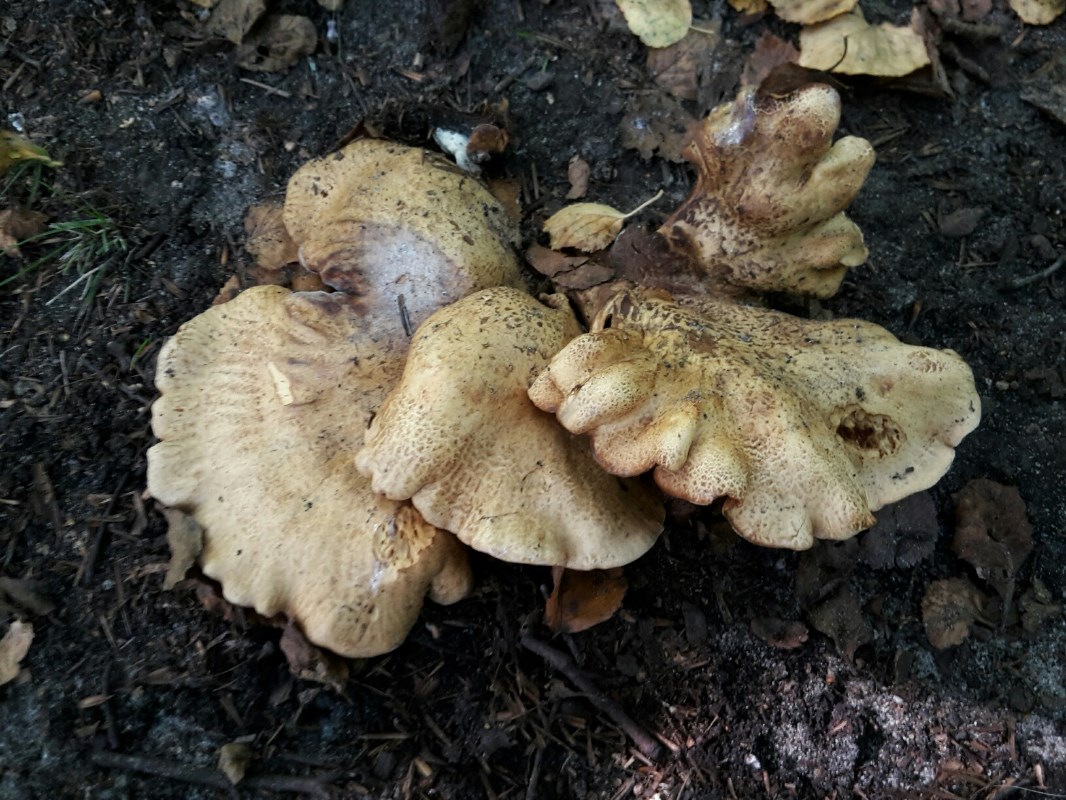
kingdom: Fungi
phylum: Basidiomycota
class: Agaricomycetes
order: Boletales
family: Paxillaceae
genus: Paxillus
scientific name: Paxillus rubicundulus
